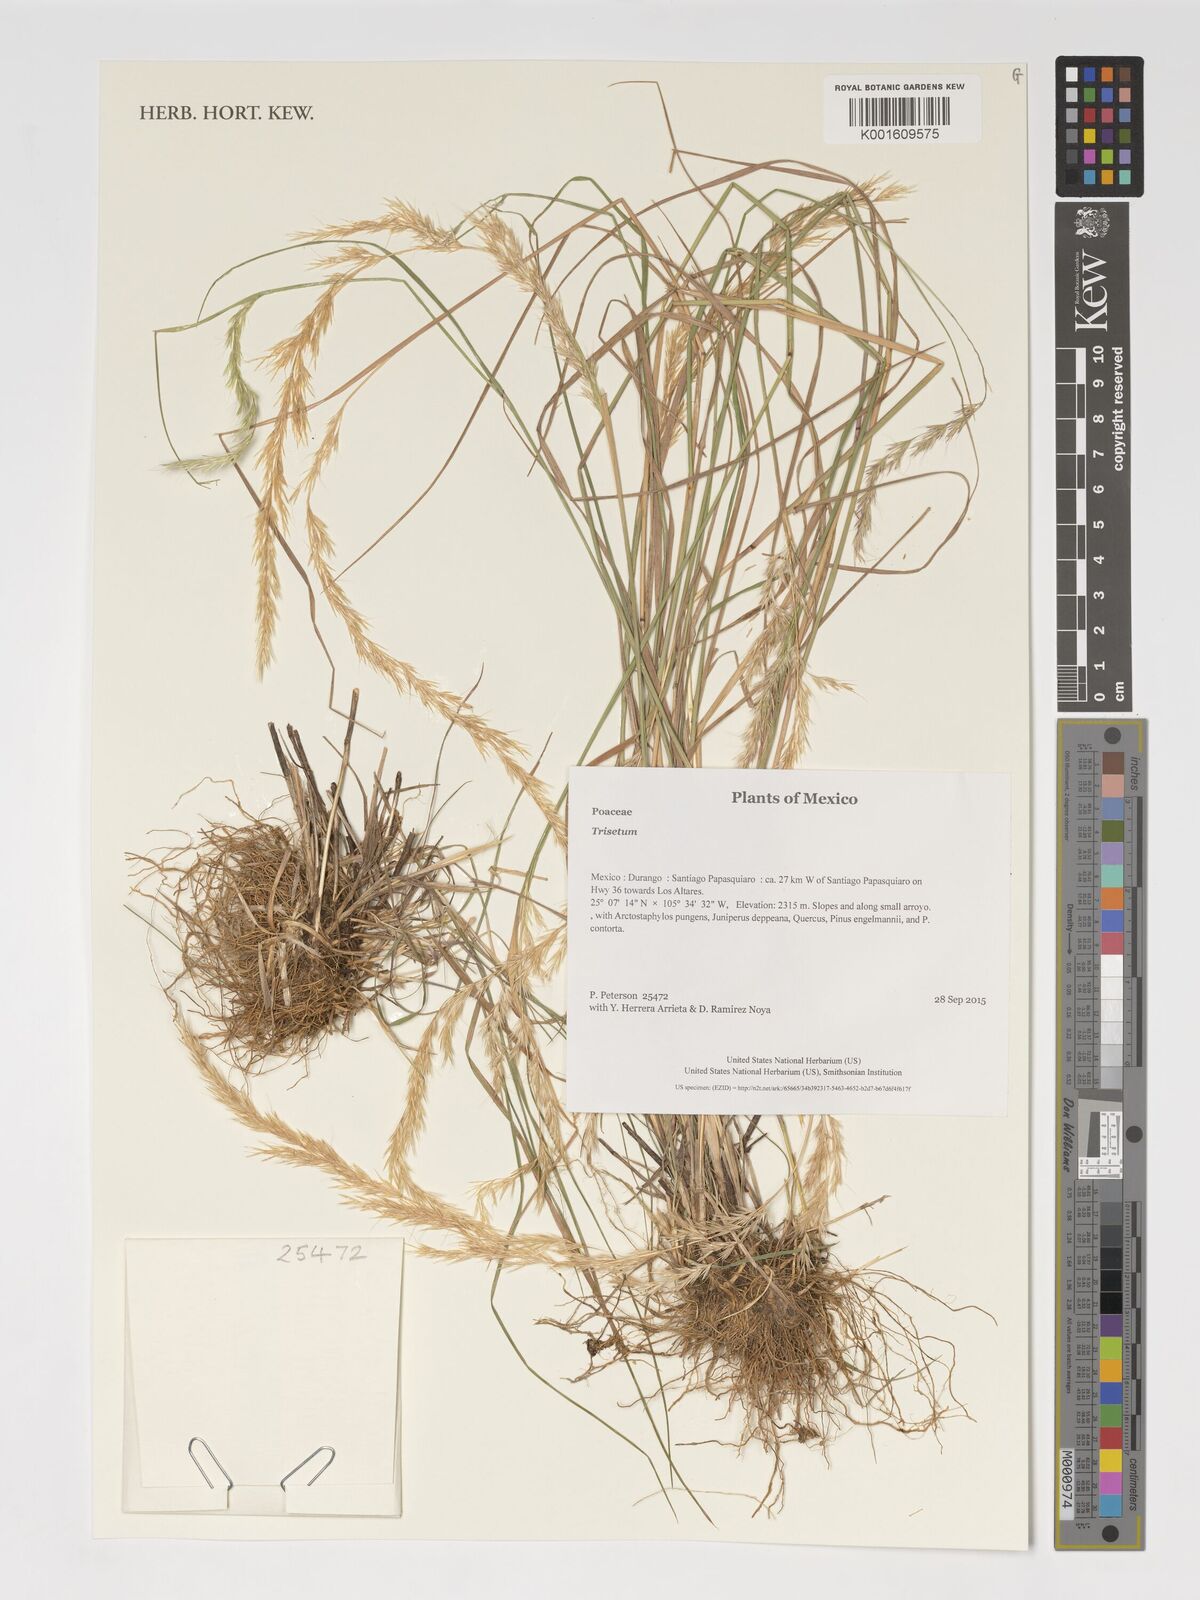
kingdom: Plantae
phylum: Tracheophyta
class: Liliopsida
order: Poales
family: Poaceae
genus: Trisetum
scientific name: Trisetum
